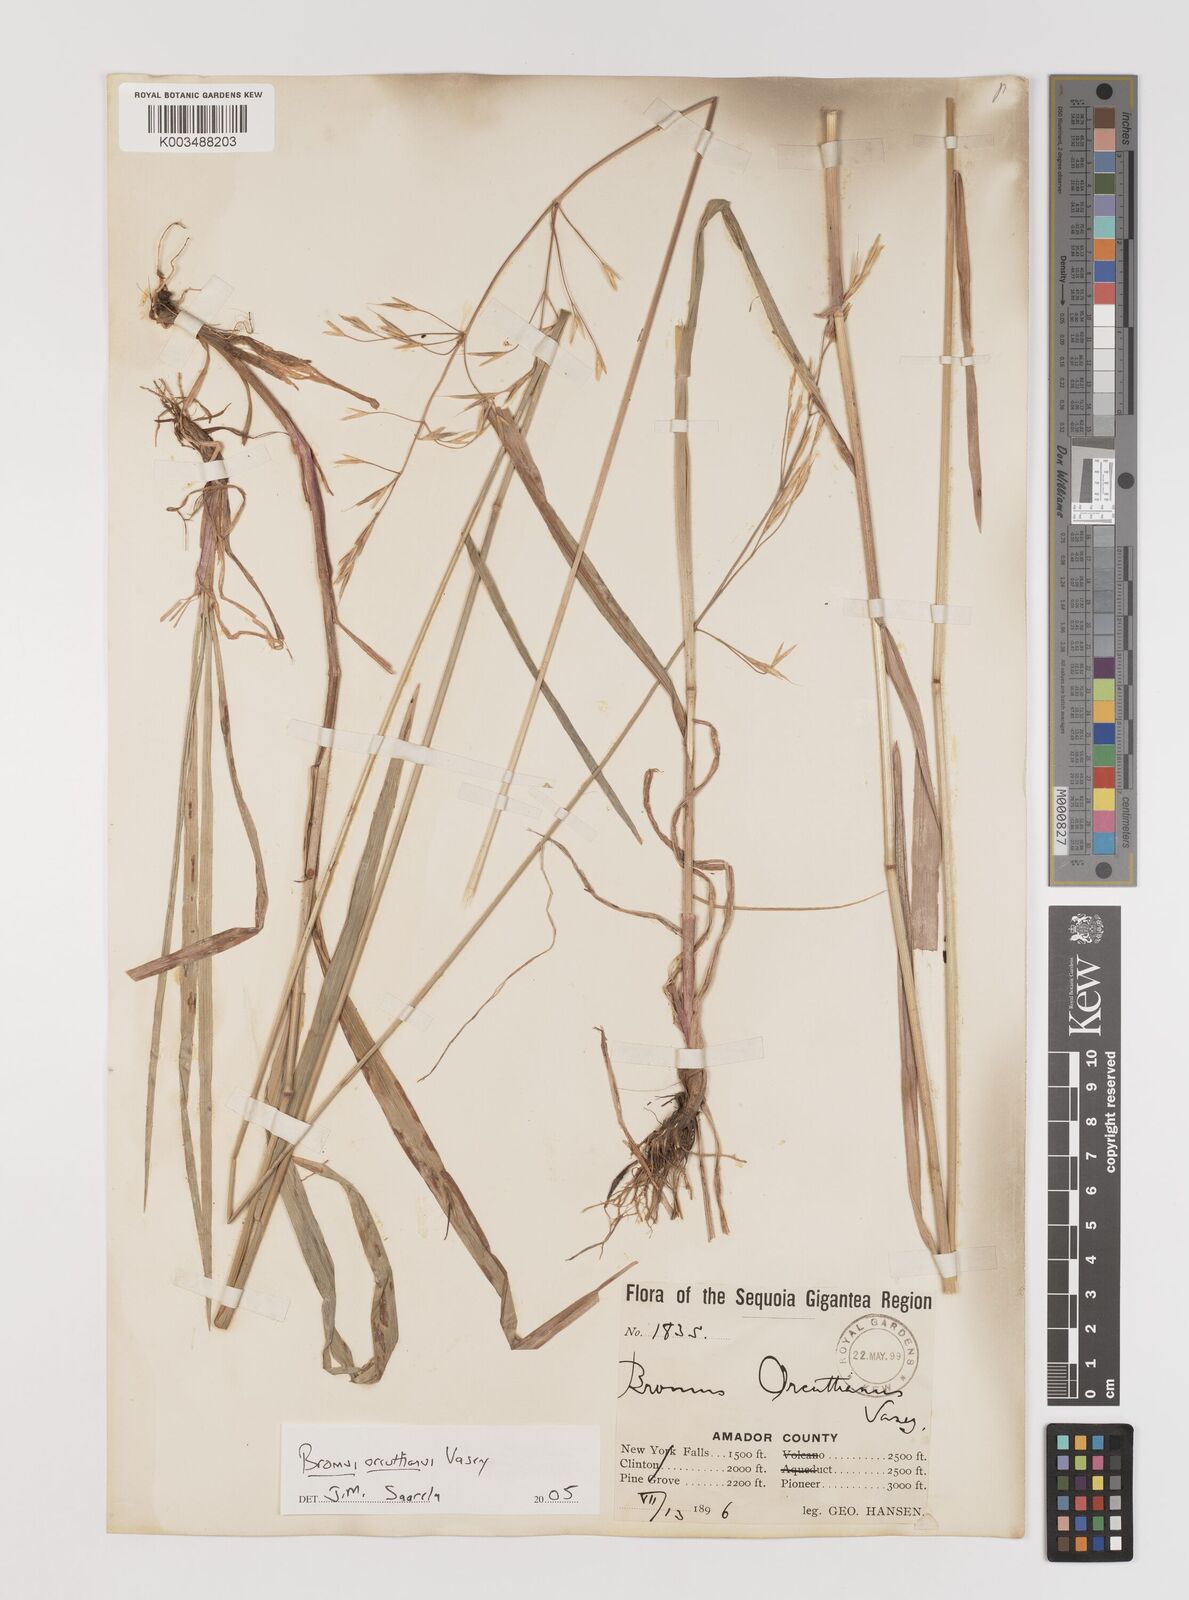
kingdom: Plantae
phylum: Tracheophyta
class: Liliopsida
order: Poales
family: Poaceae
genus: Bromus
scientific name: Bromus orcuttianus
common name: Orcutt's brome
